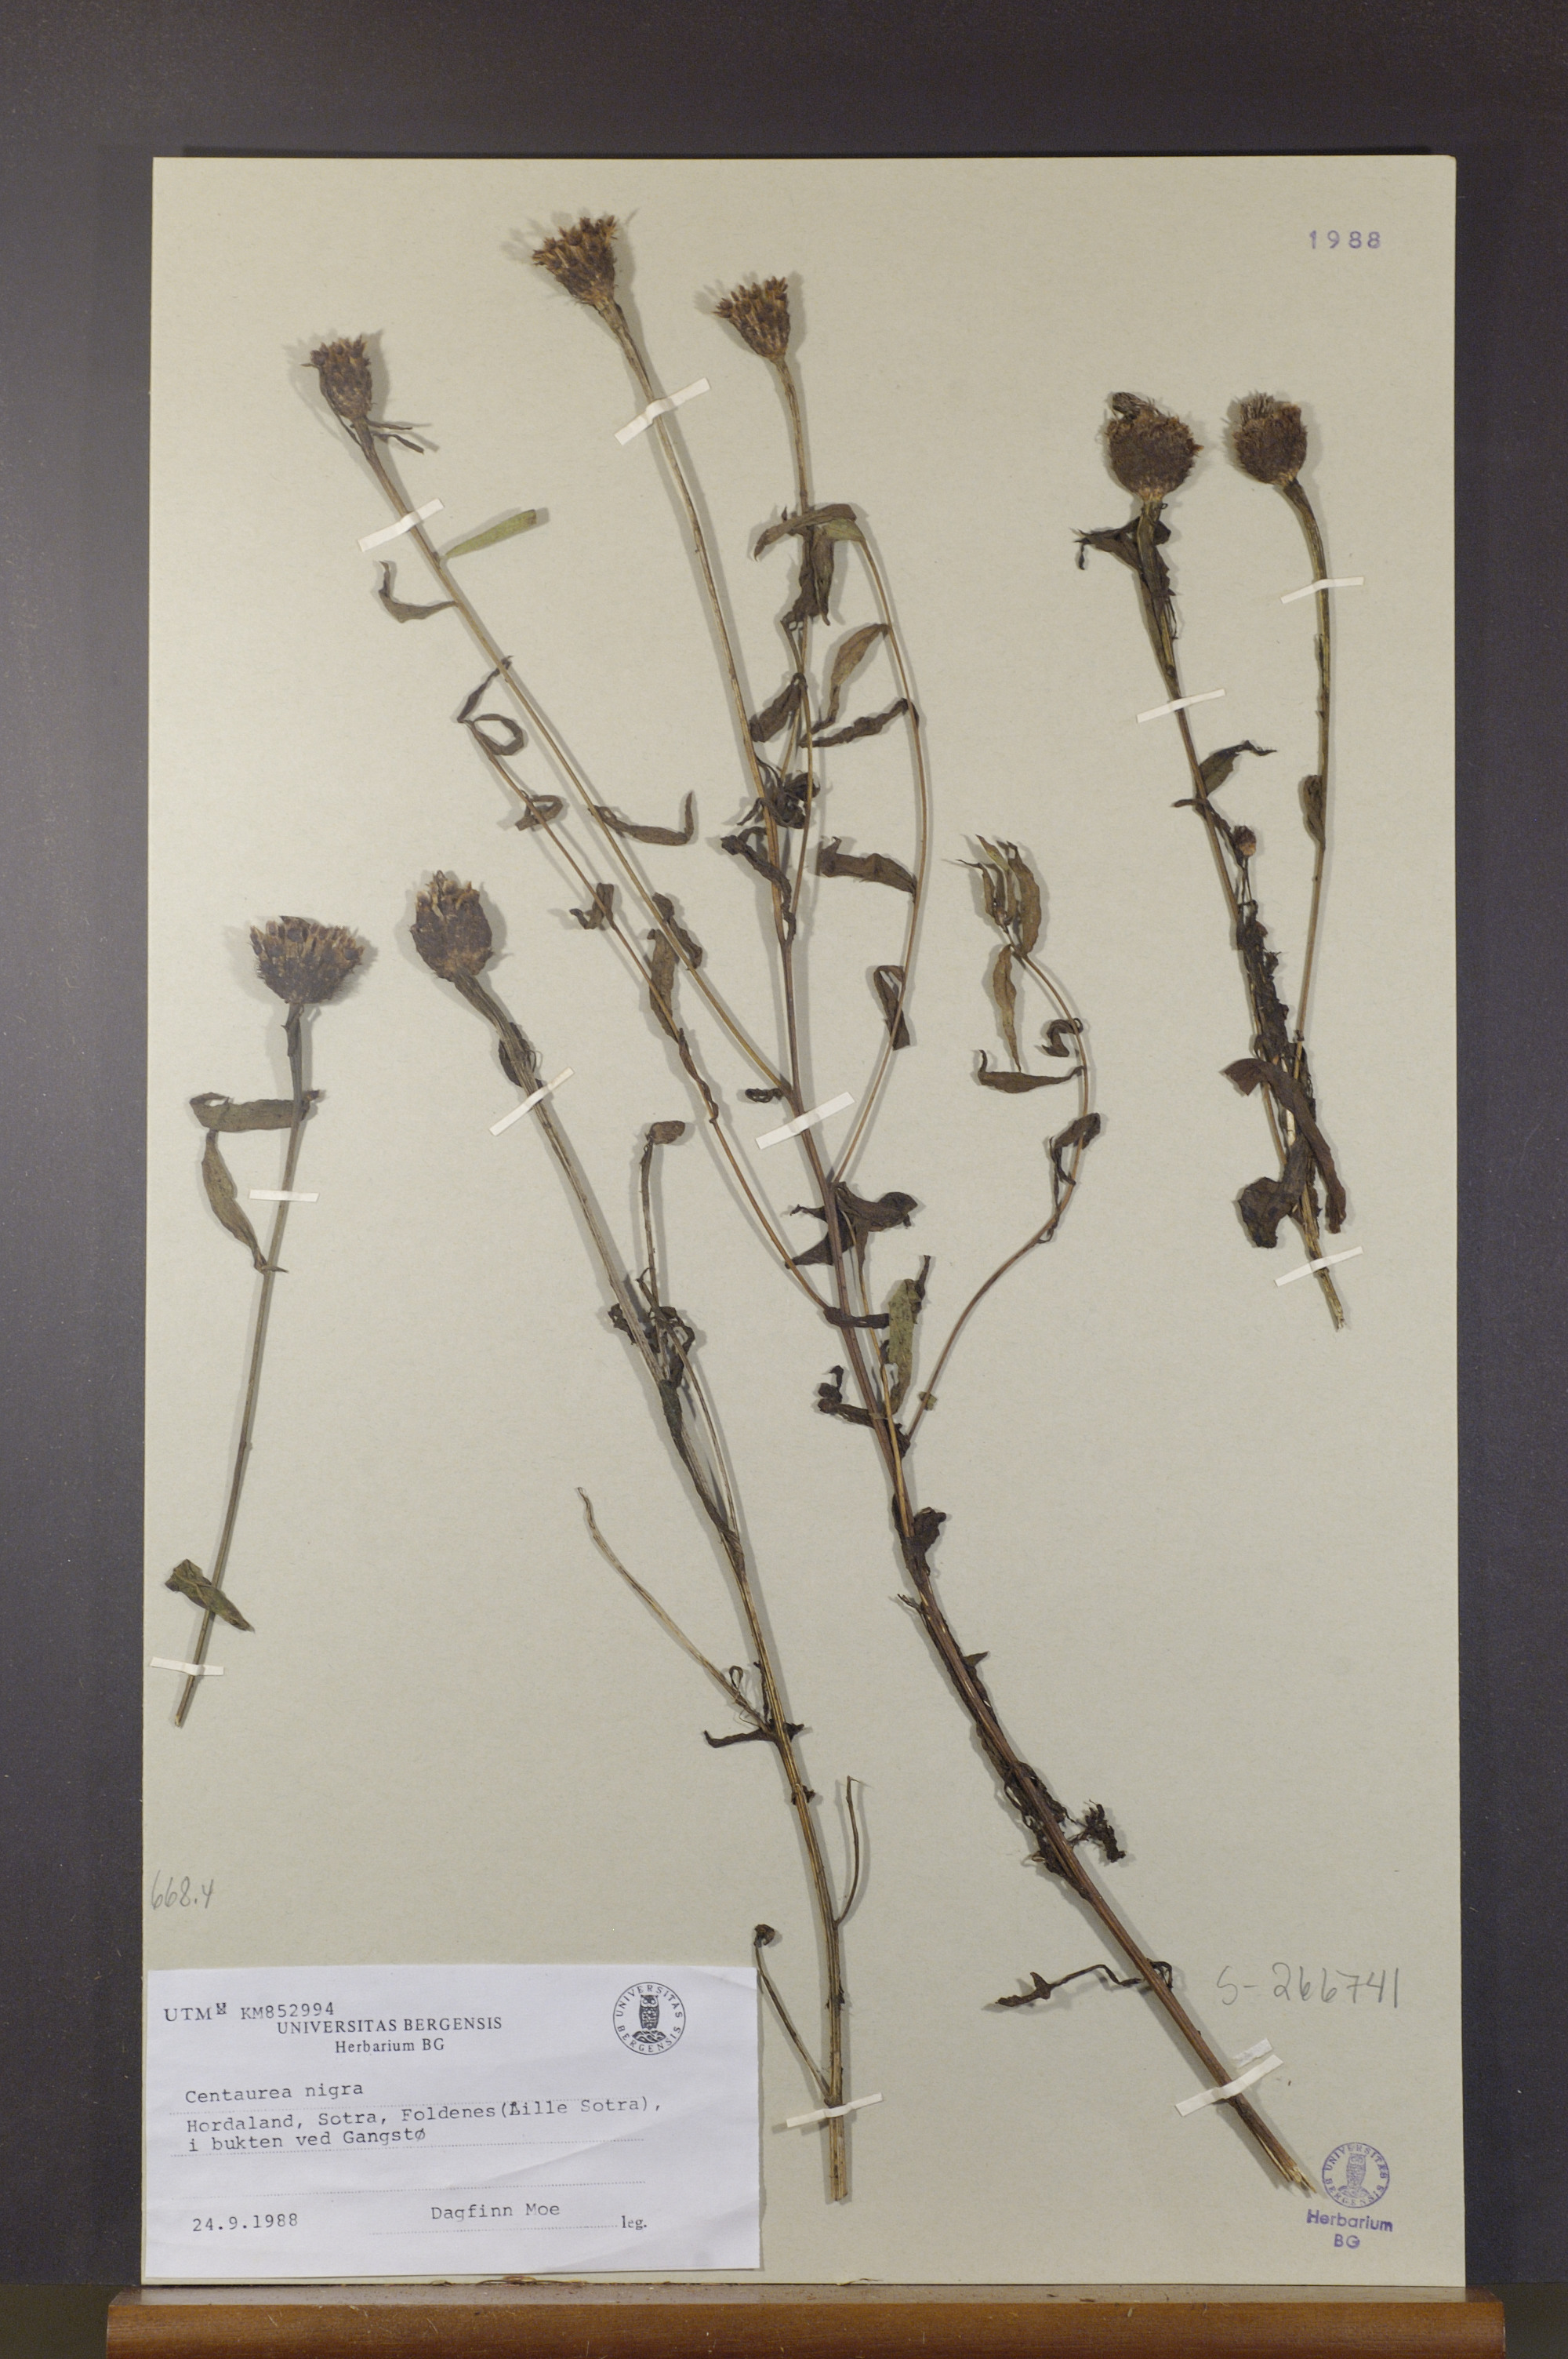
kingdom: Plantae
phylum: Tracheophyta
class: Magnoliopsida
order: Asterales
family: Asteraceae
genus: Centaurea
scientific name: Centaurea nigra
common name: Lesser knapweed
